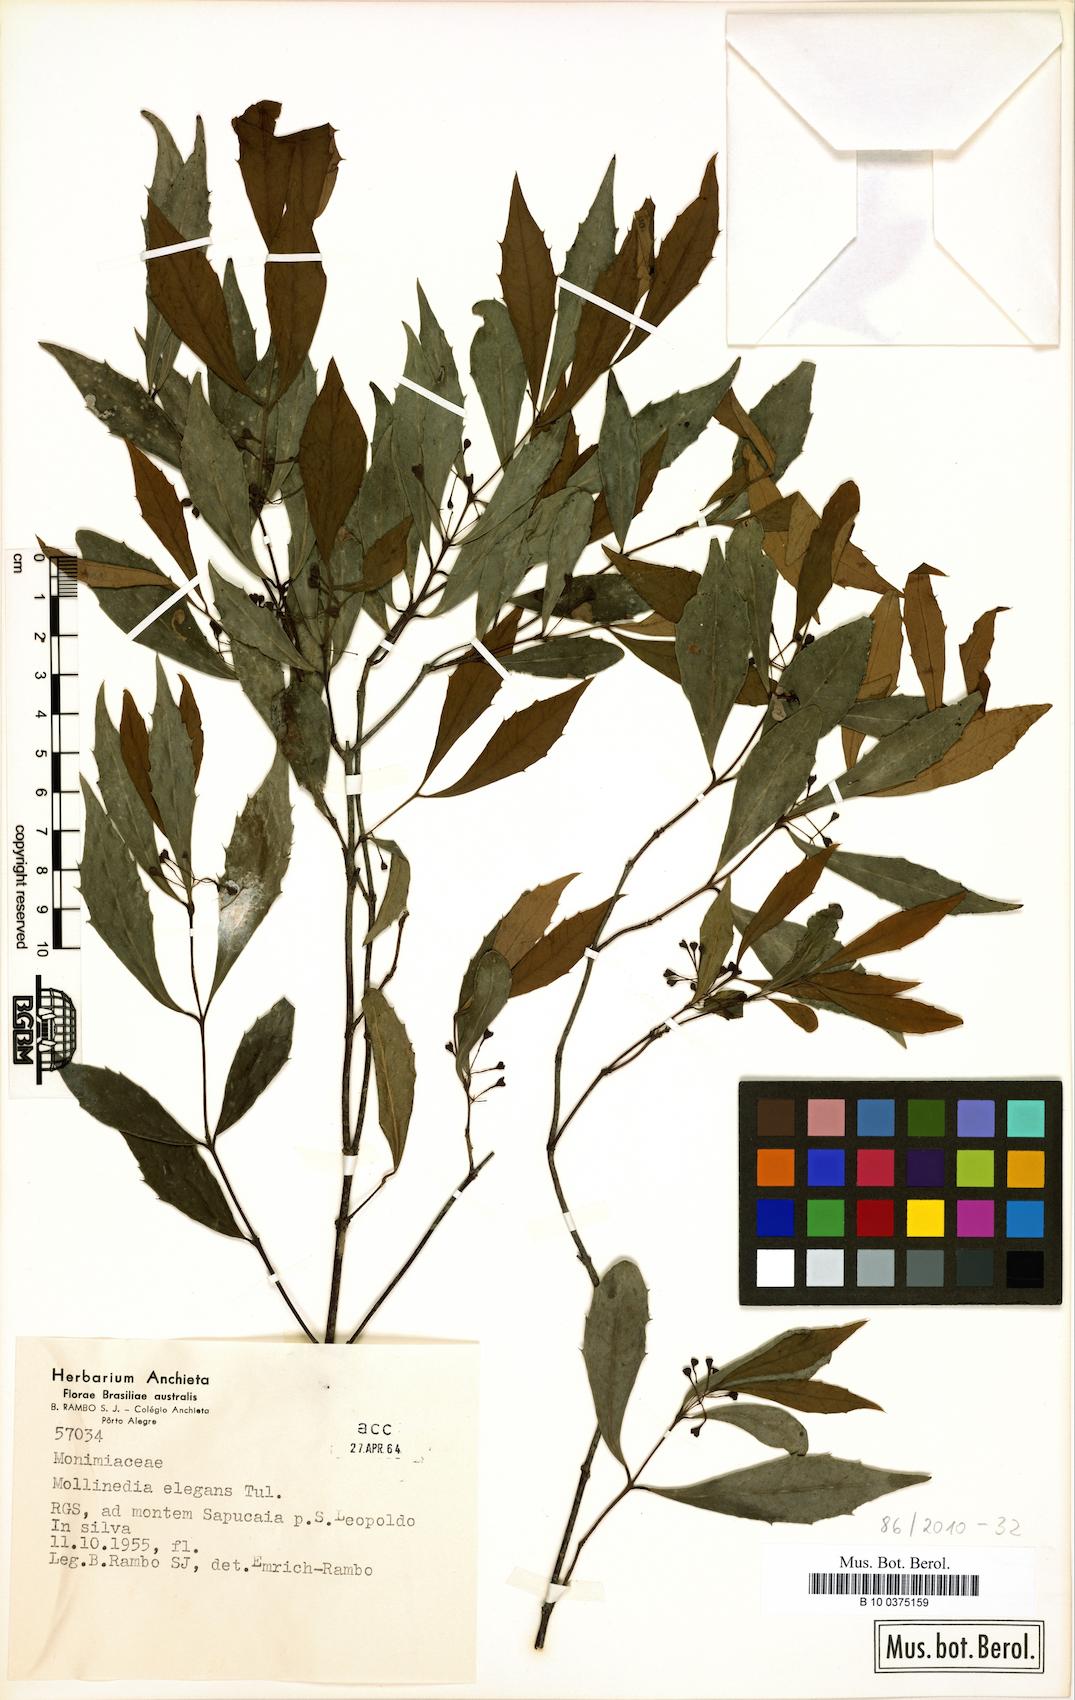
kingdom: Plantae
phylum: Tracheophyta
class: Magnoliopsida
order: Laurales
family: Monimiaceae
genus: Mollinedia
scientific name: Mollinedia elegans
